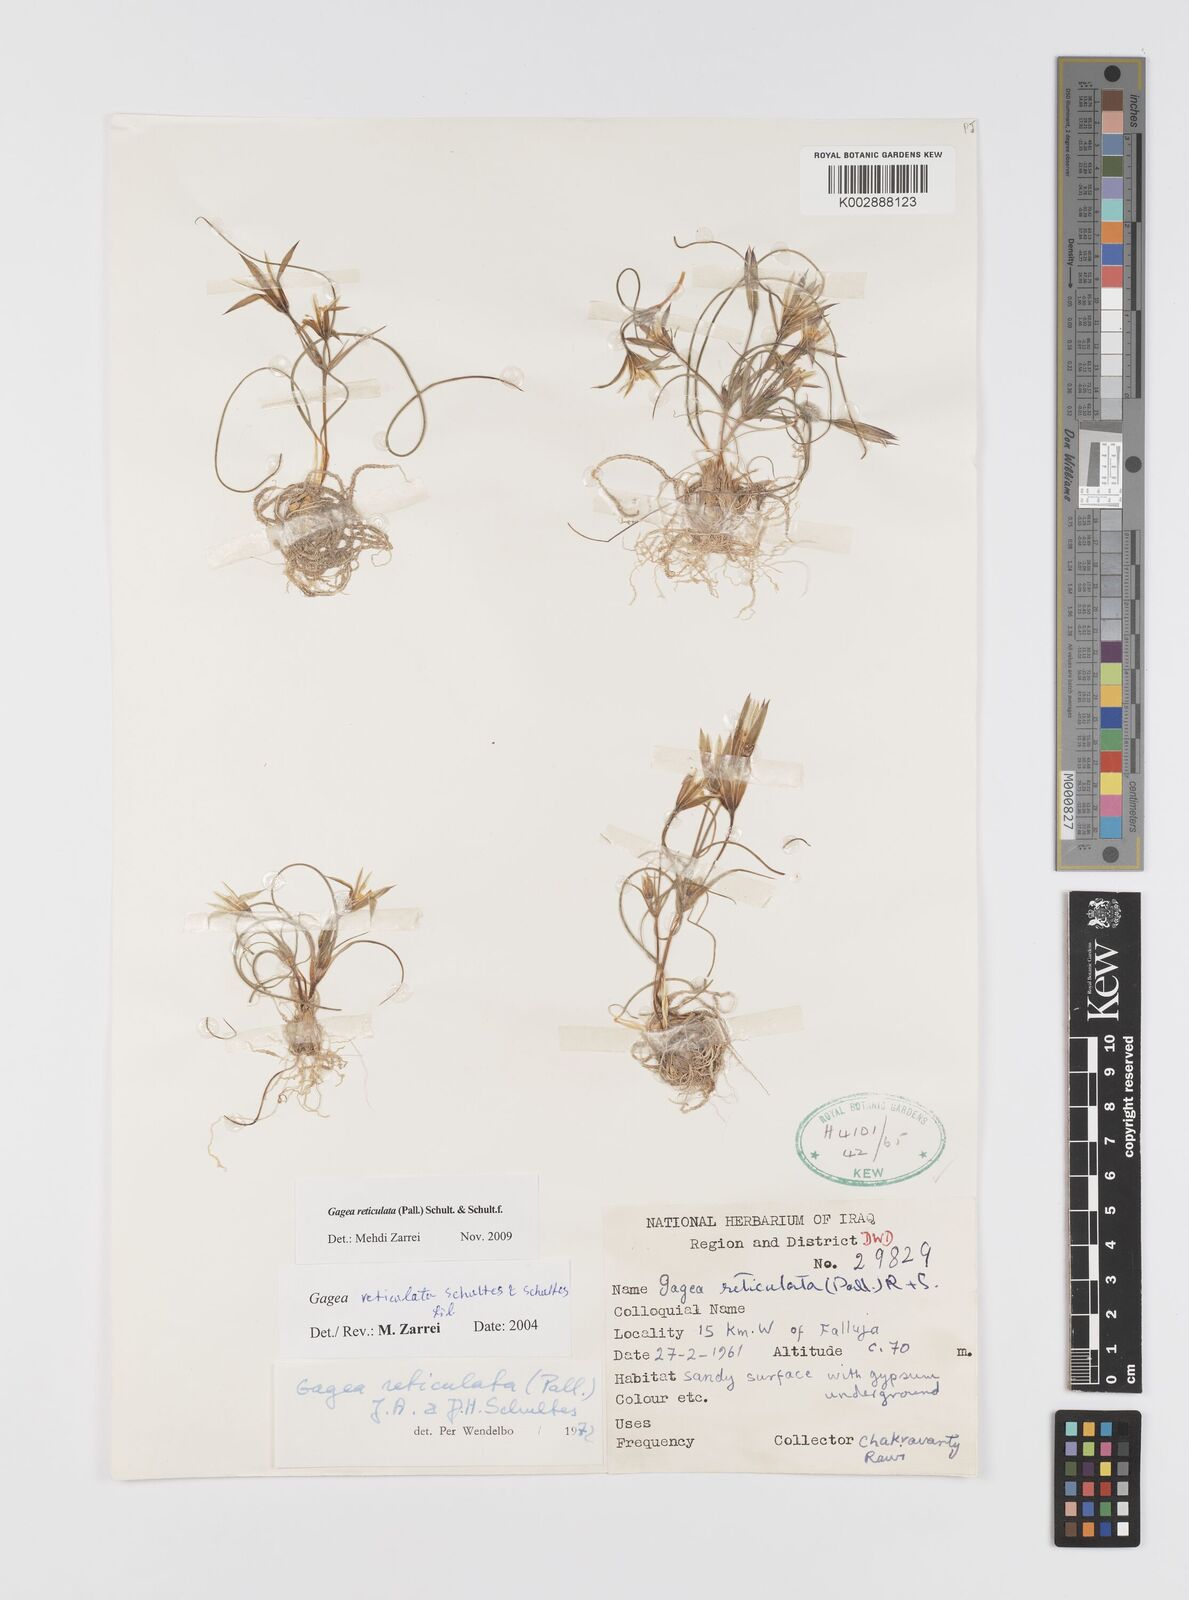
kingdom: Plantae
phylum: Tracheophyta
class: Liliopsida
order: Liliales
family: Liliaceae
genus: Gagea
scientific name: Gagea reticulata
